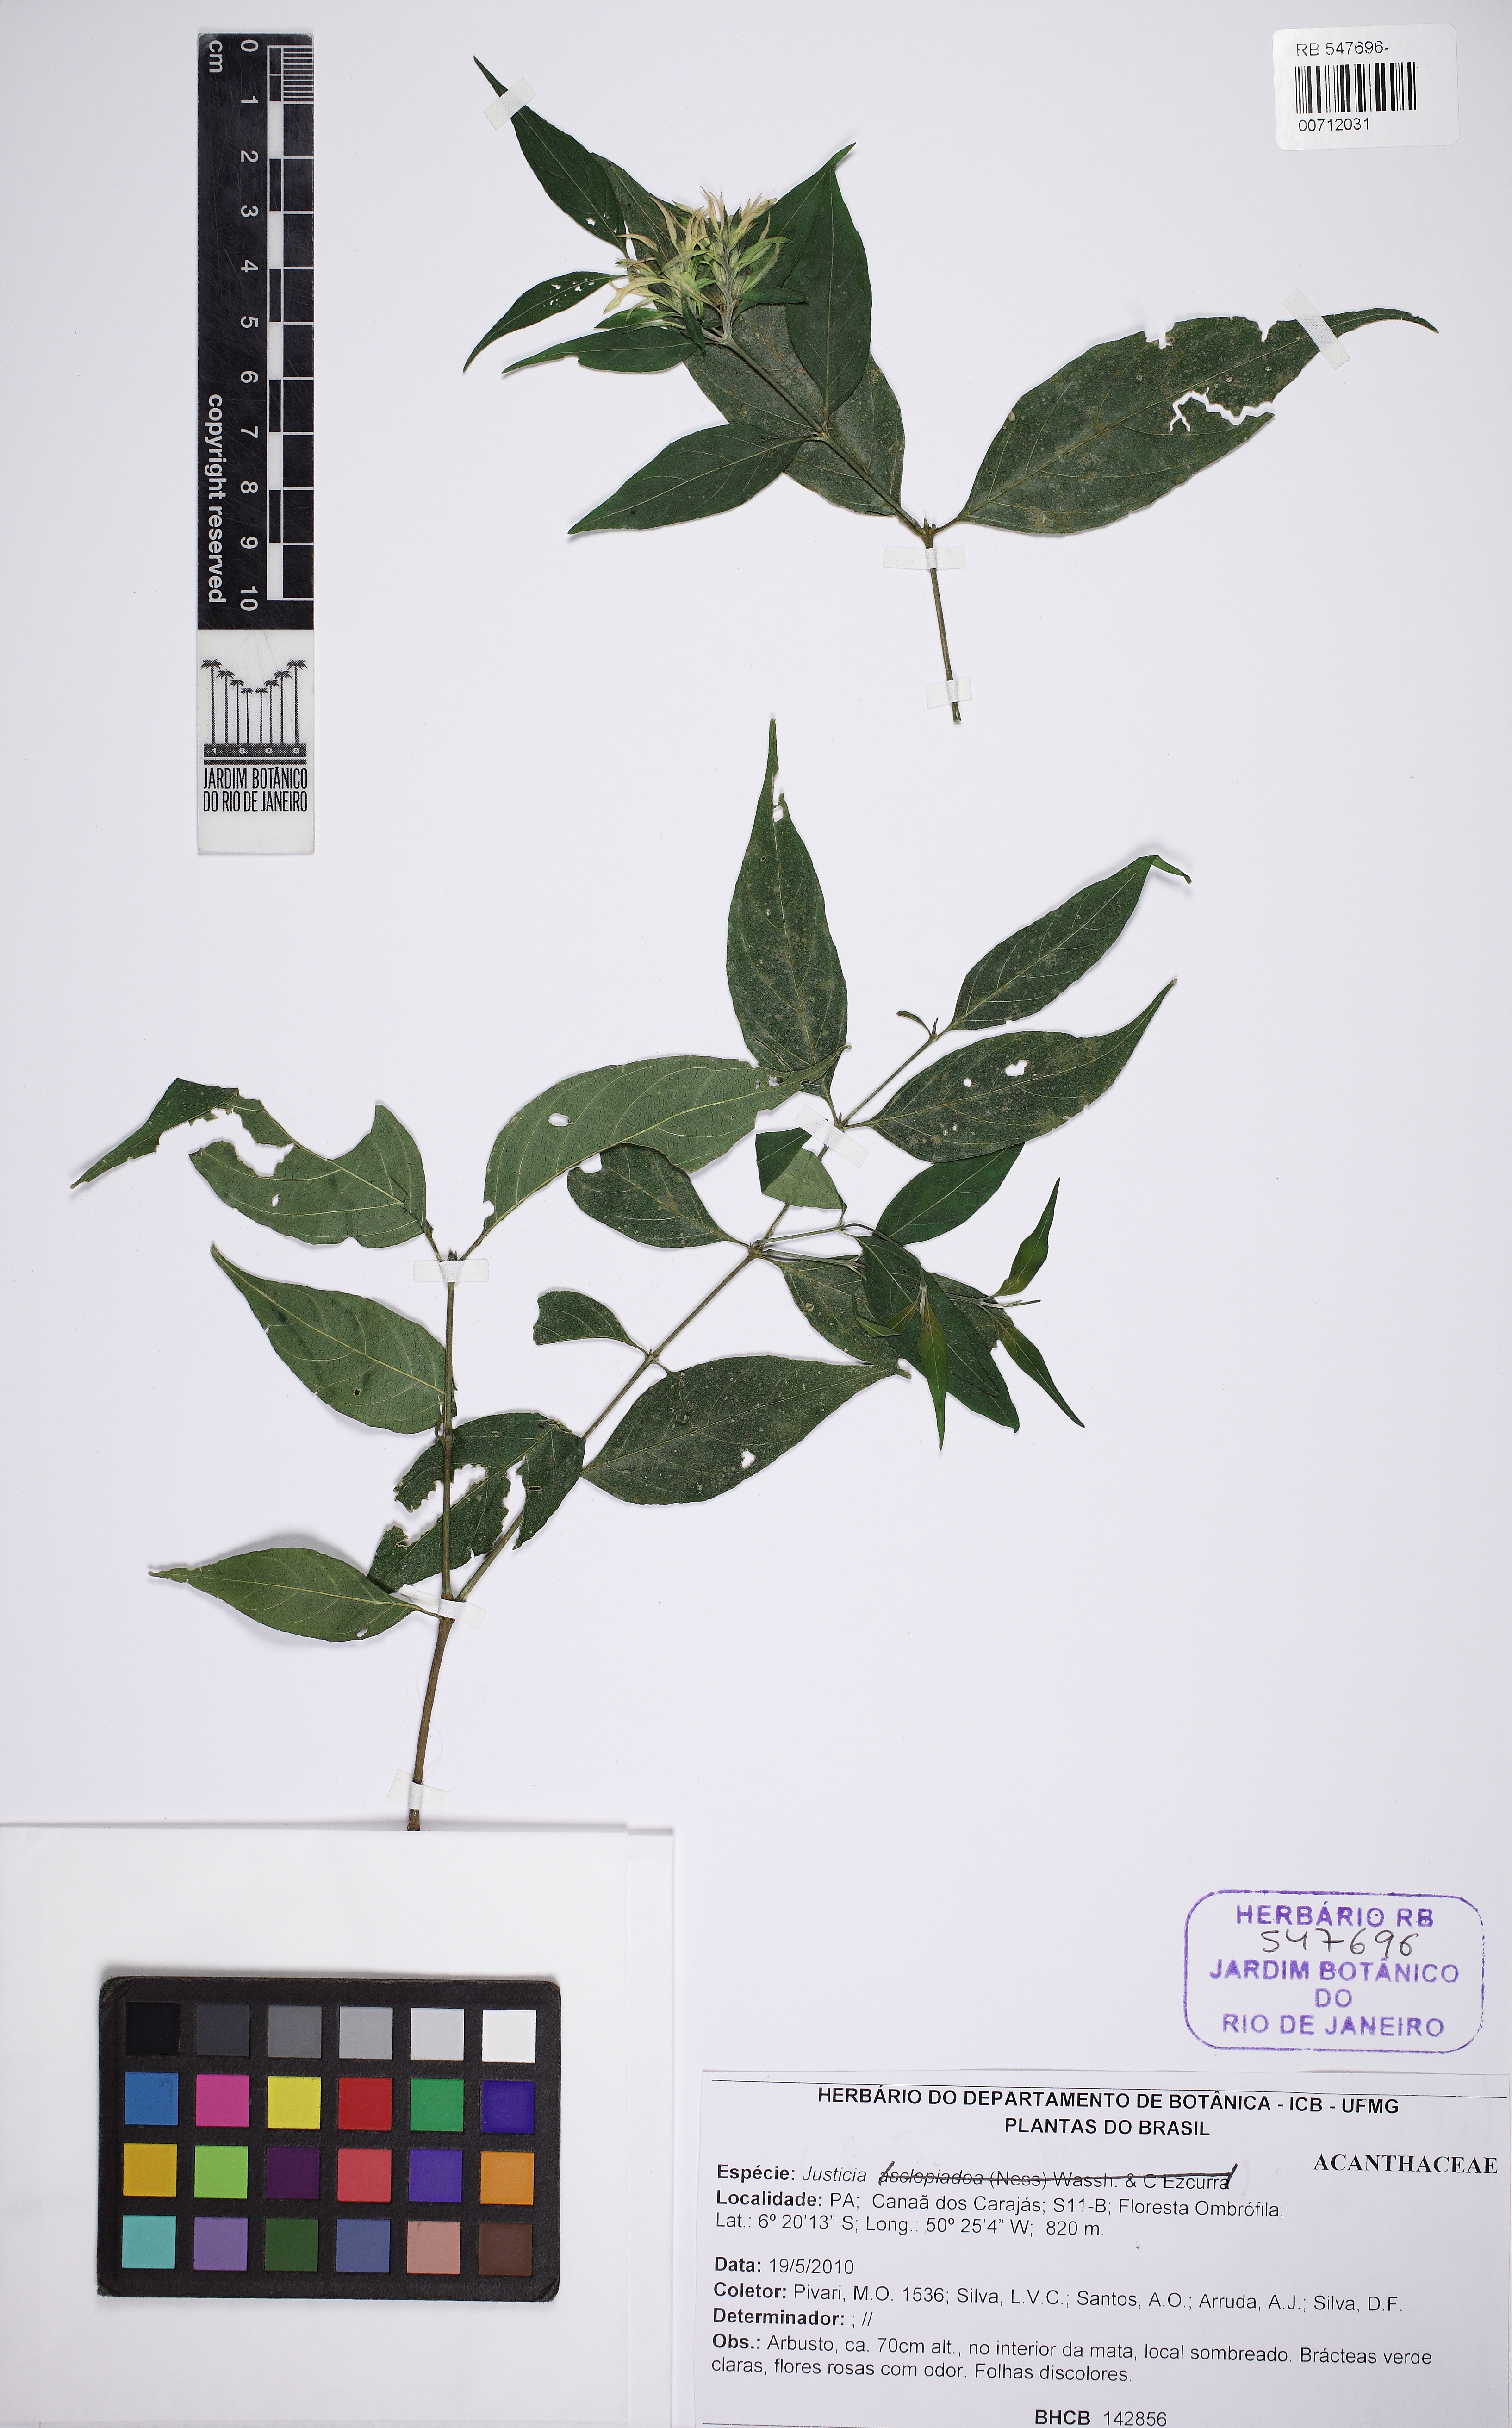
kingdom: Plantae
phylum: Tracheophyta
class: Magnoliopsida
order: Lamiales
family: Acanthaceae
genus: Justicia
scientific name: Justicia distichophylla
